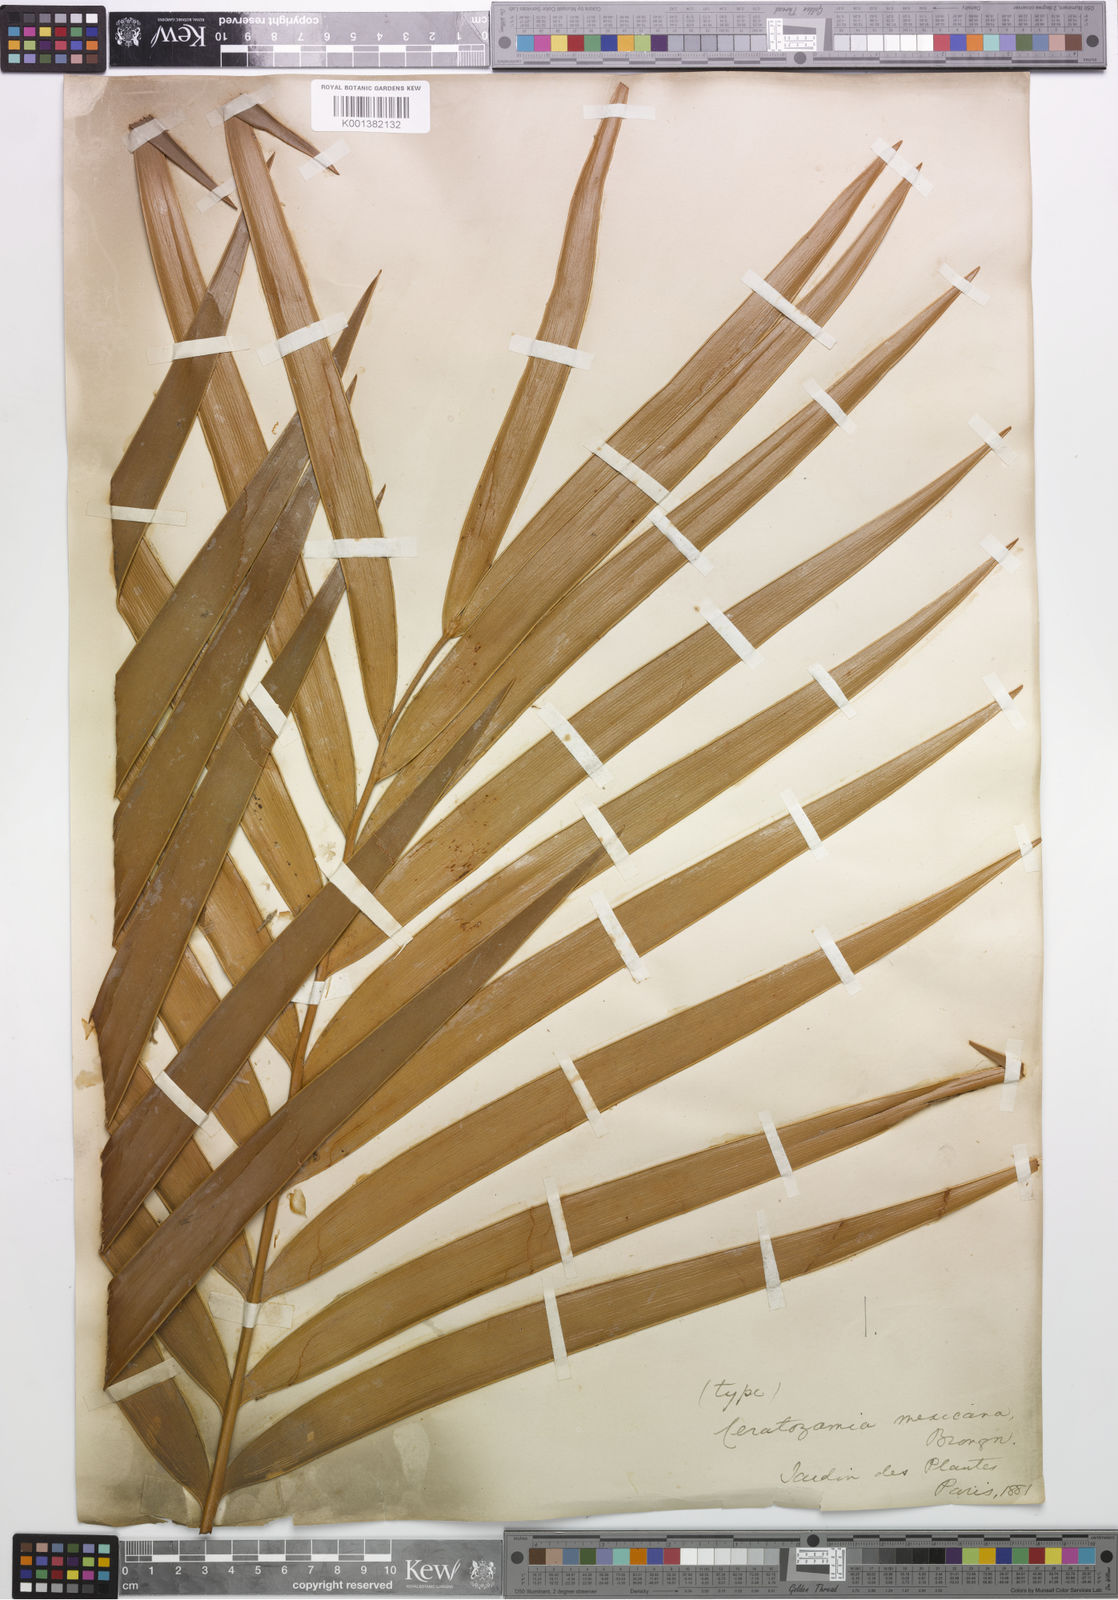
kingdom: Plantae
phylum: Tracheophyta
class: Cycadopsida
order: Cycadales
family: Zamiaceae
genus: Ceratozamia
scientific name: Ceratozamia mexicana
